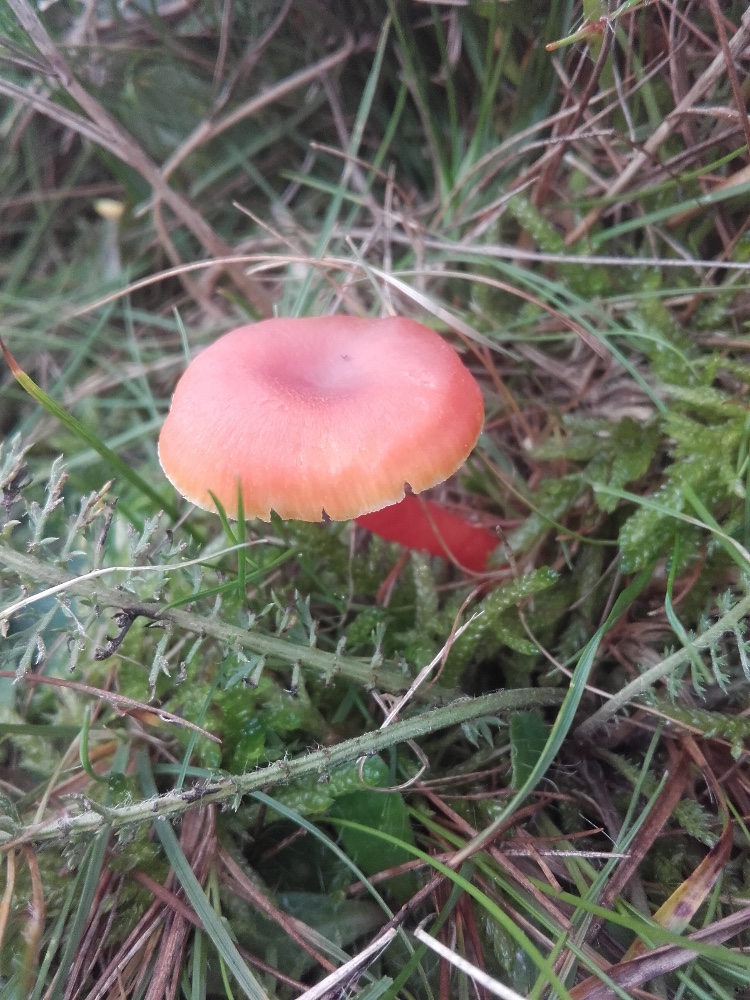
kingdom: Fungi
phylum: Basidiomycota
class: Agaricomycetes
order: Agaricales
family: Hygrophoraceae
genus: Hygrocybe
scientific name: Hygrocybe miniata
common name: mønje-vokshat
